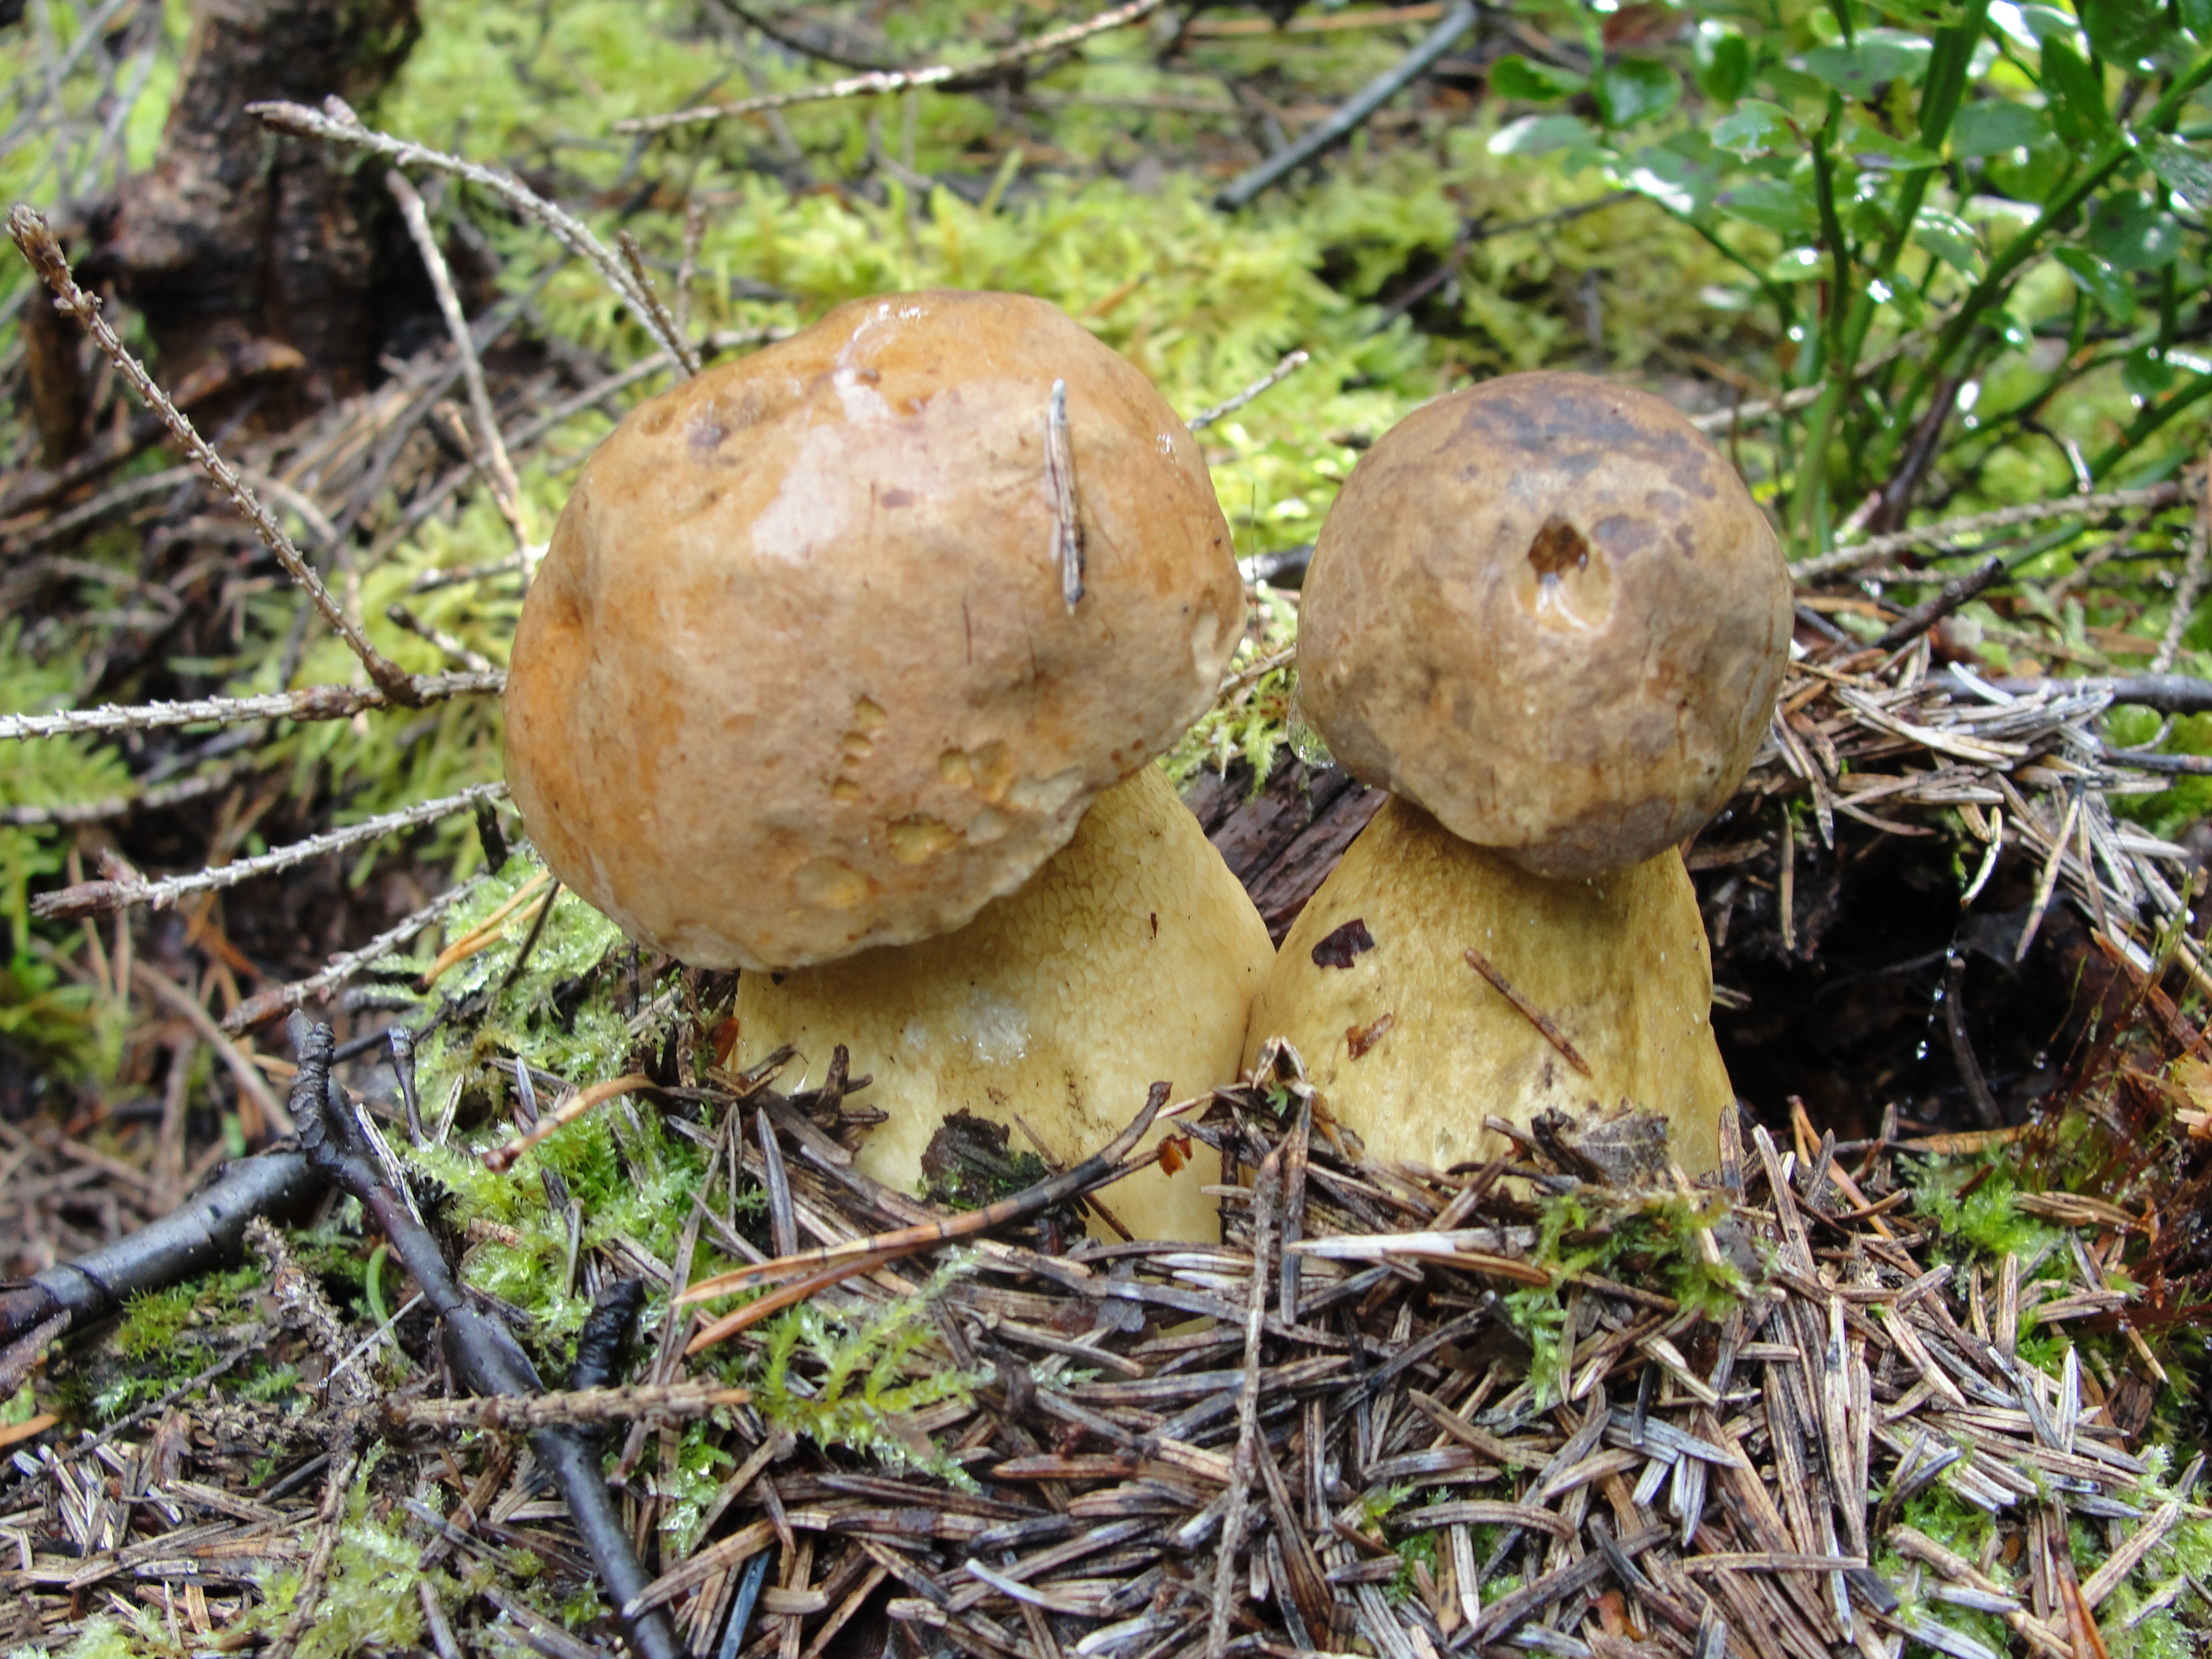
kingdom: Fungi
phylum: Basidiomycota
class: Agaricomycetes
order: Boletales
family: Boletaceae
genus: Boletus
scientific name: Boletus edulis
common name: Cep
